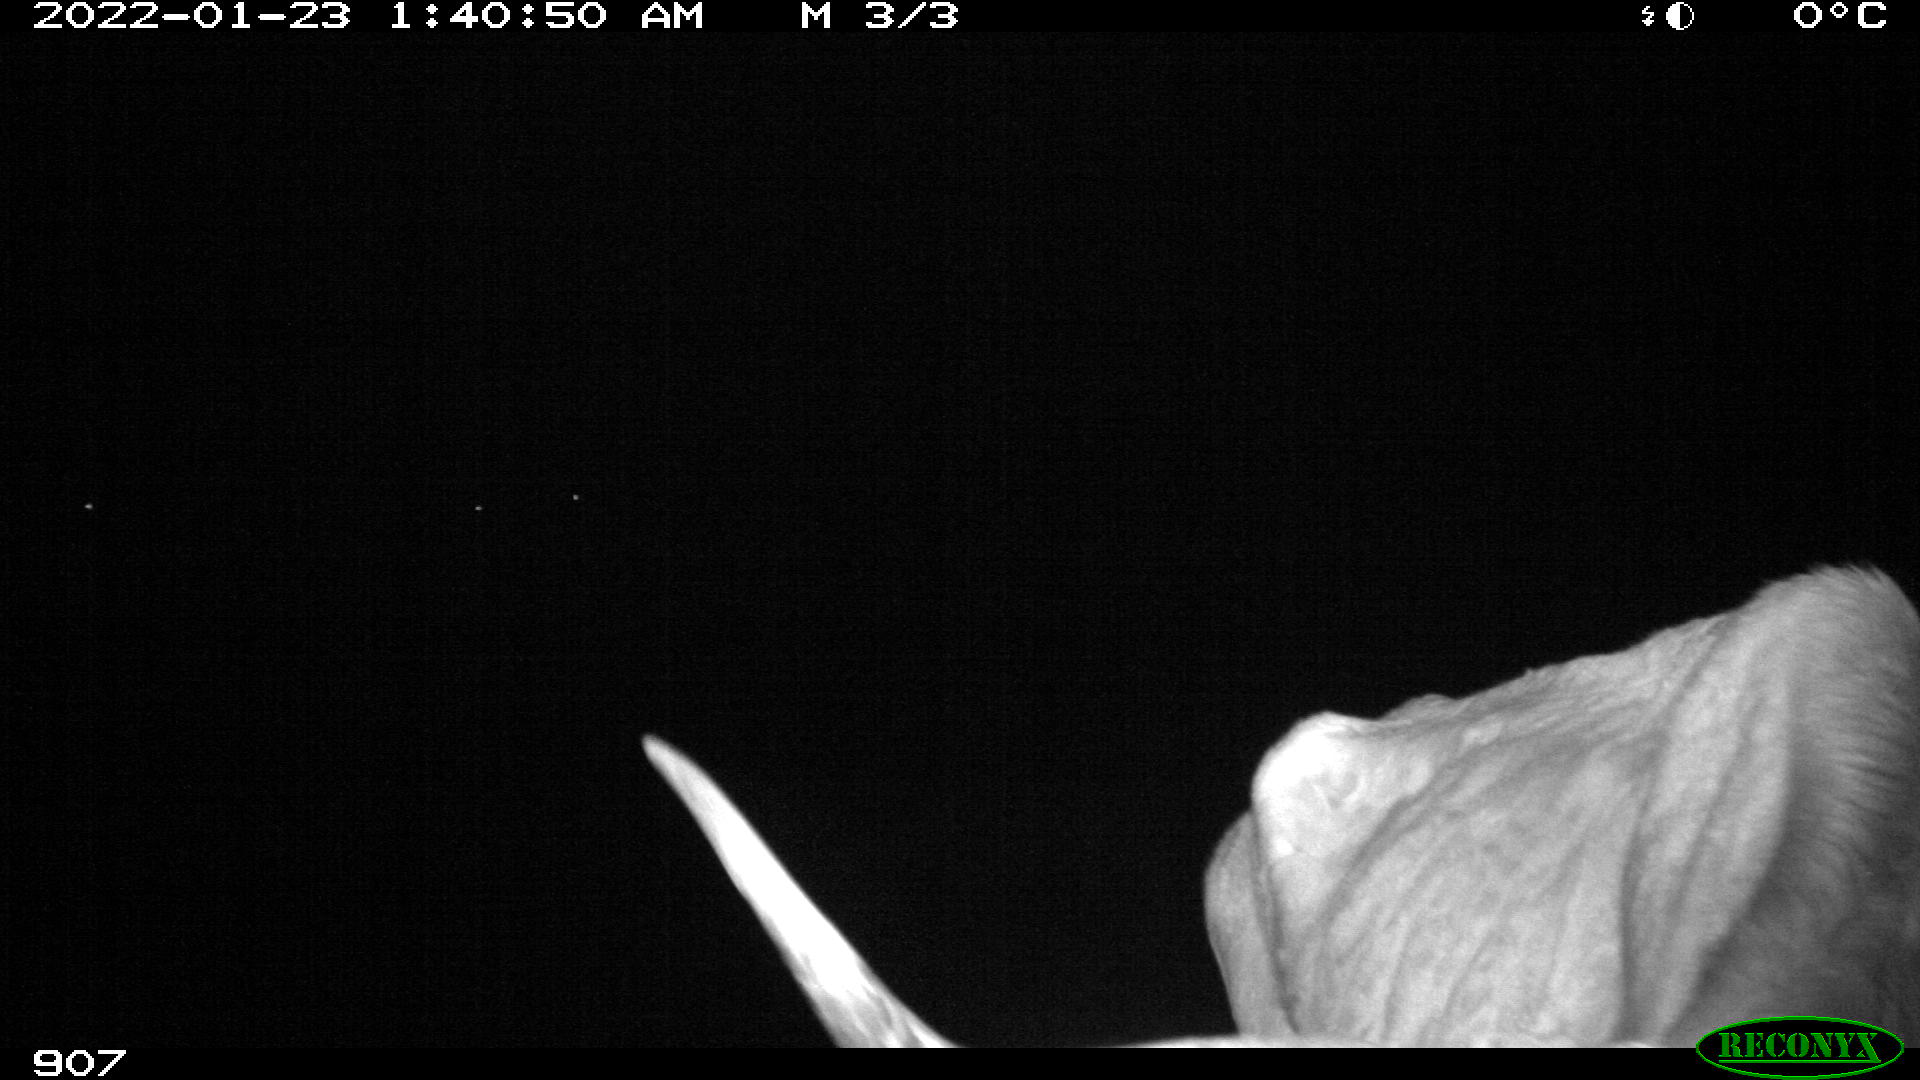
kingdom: Animalia
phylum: Chordata
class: Mammalia
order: Artiodactyla
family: Bovidae
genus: Bos
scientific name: Bos taurus
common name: Domesticated cattle
